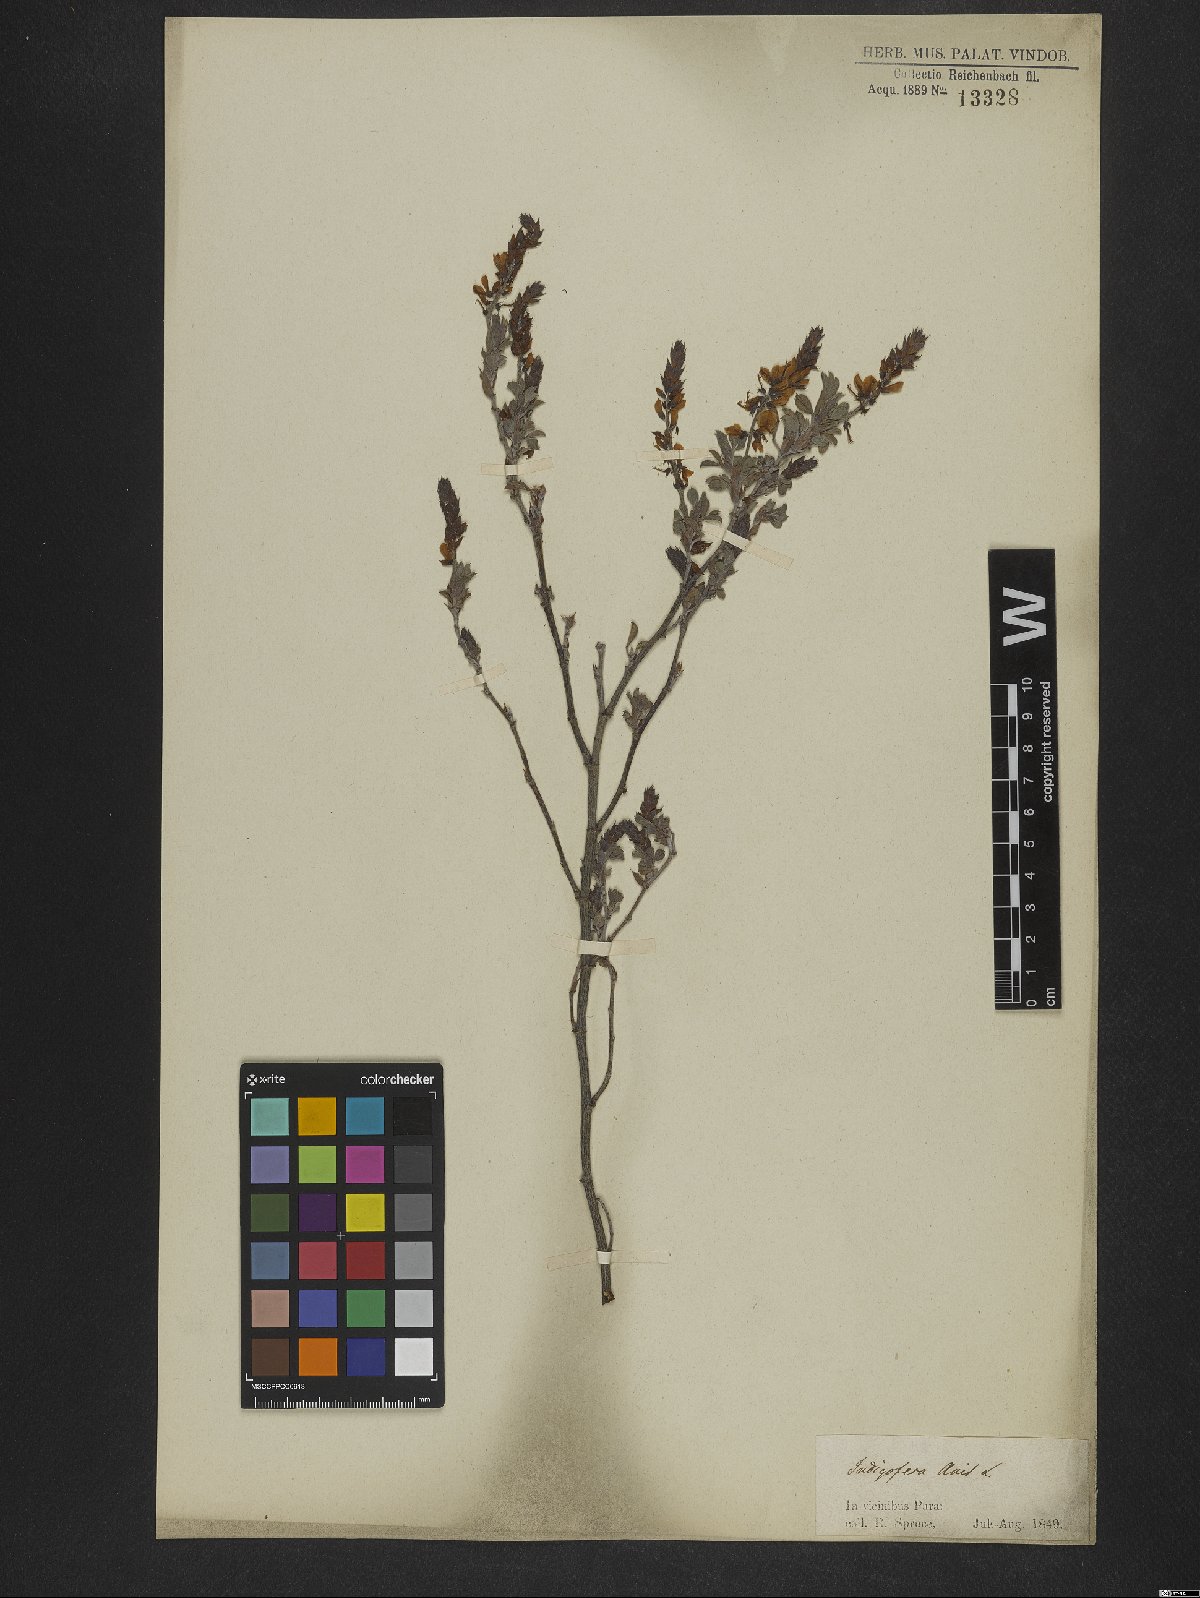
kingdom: Plantae
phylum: Tracheophyta
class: Magnoliopsida
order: Fabales
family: Fabaceae
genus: Indigofera
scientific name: Indigofera suffruticosa
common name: Anil de pasto
